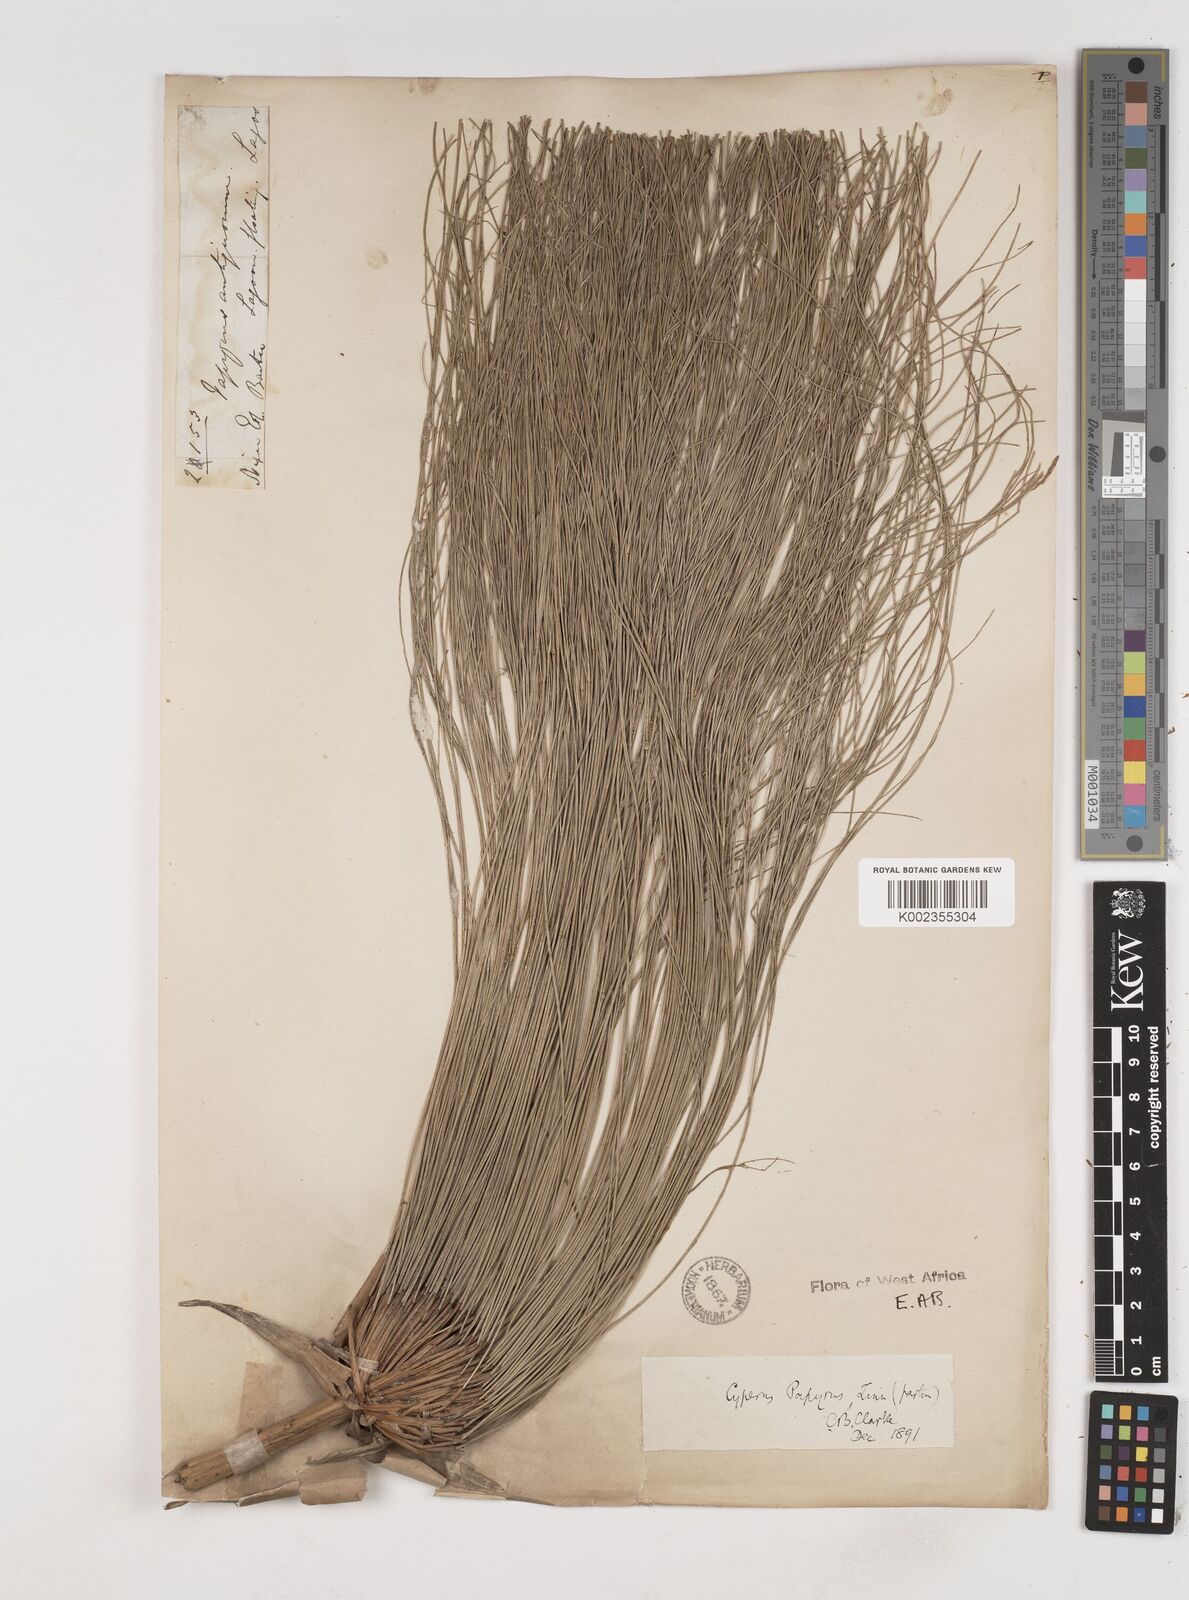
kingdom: Plantae
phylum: Tracheophyta
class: Liliopsida
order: Poales
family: Cyperaceae
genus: Cyperus
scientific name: Cyperus papyrus
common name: Papyrus
